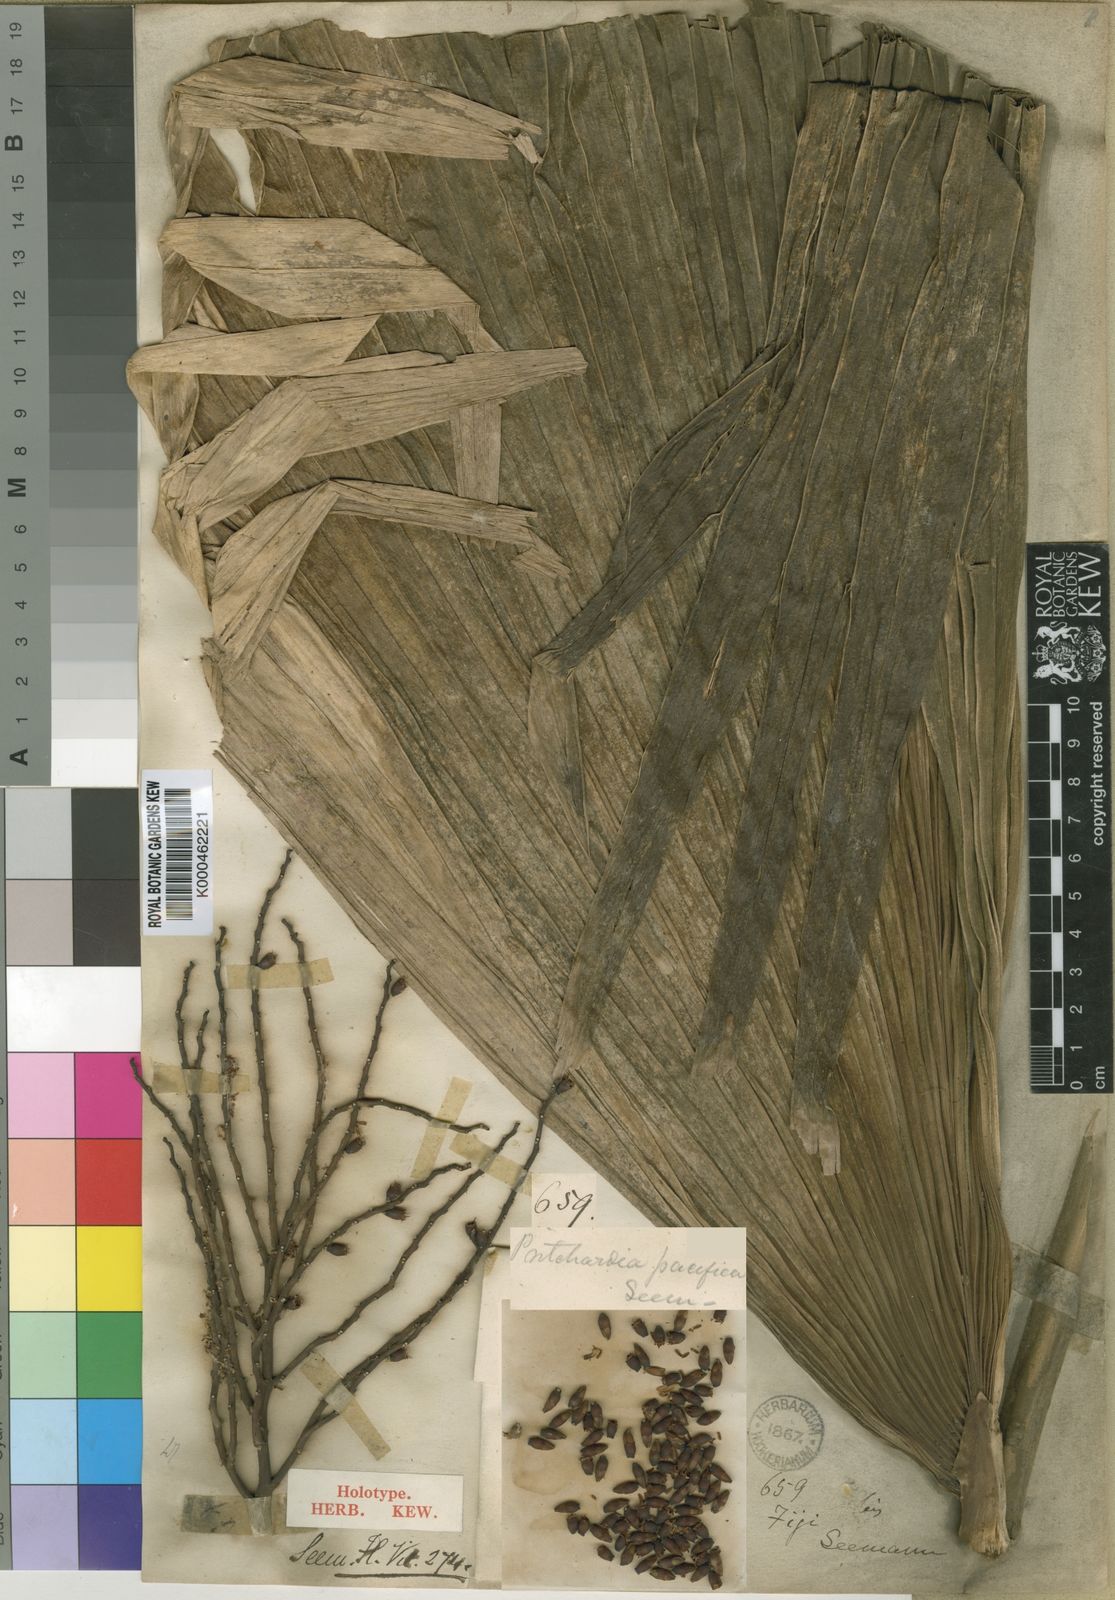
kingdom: Plantae
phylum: Tracheophyta
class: Liliopsida
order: Arecales
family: Arecaceae
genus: Pritchardia
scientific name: Pritchardia pacifica
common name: Fiji fan palm
